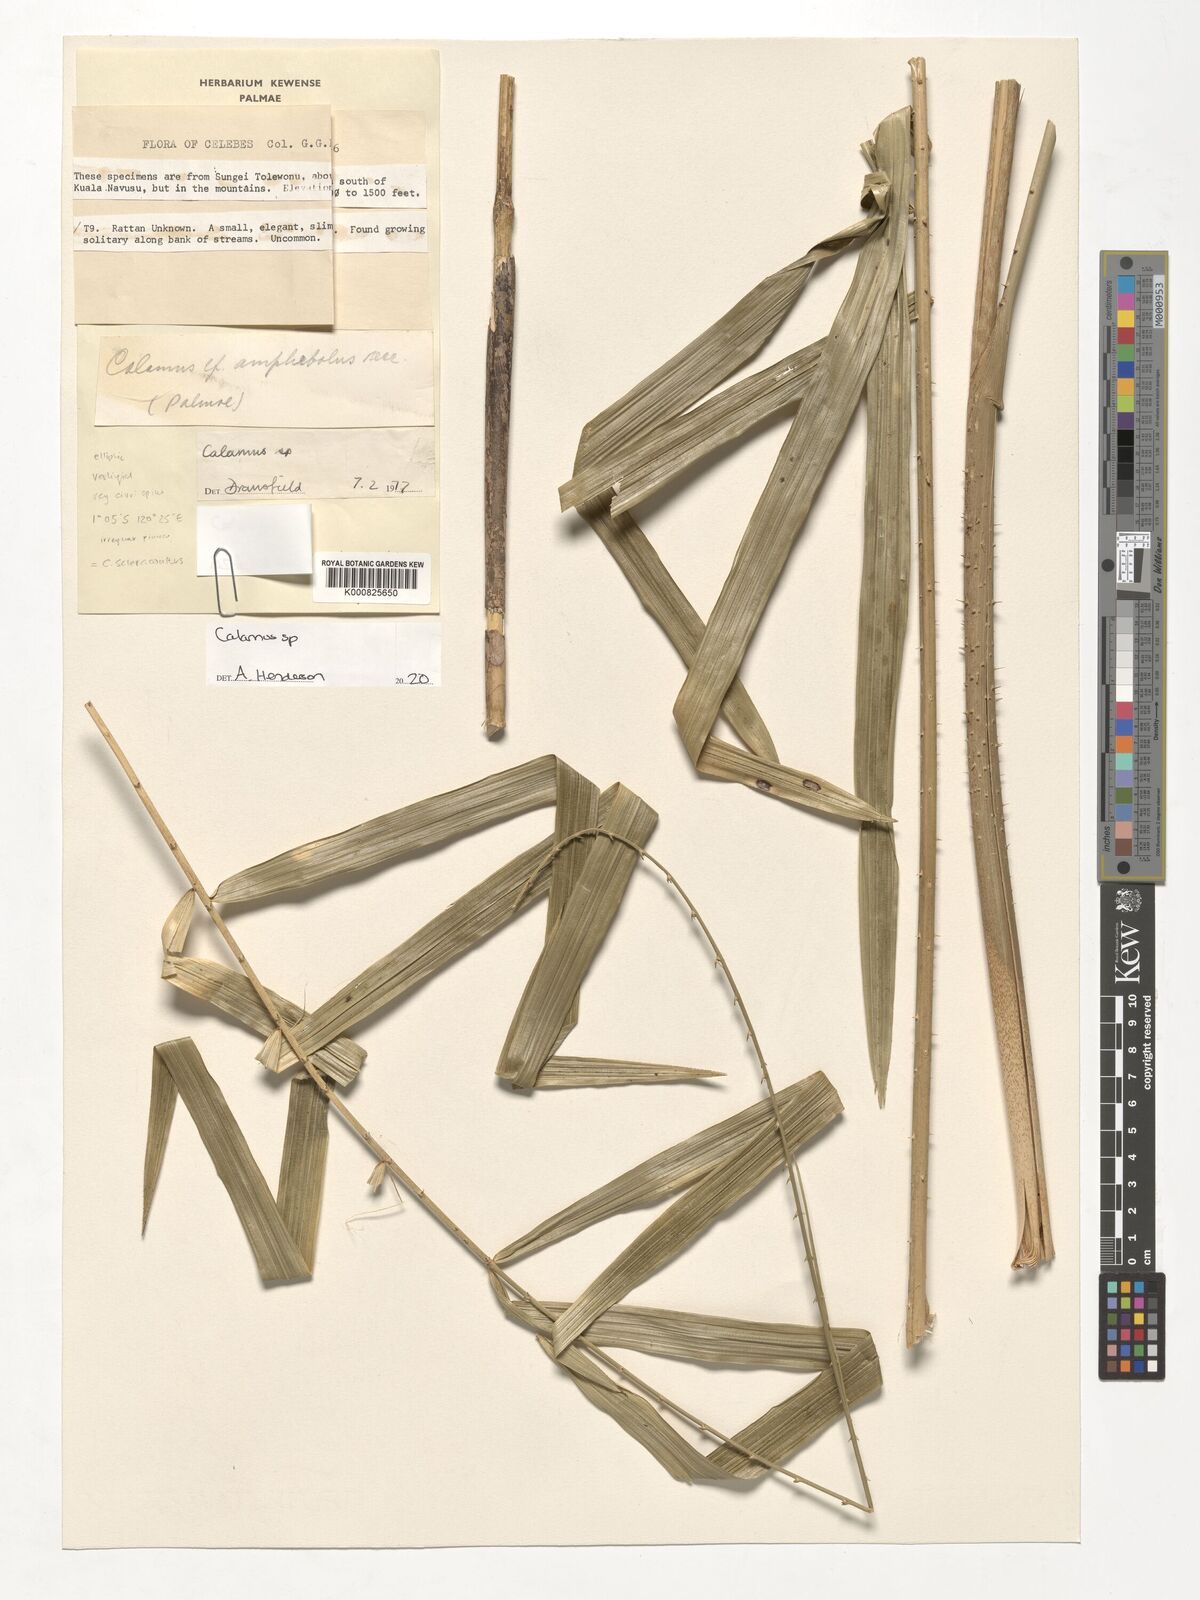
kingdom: Plantae
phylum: Tracheophyta
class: Liliopsida
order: Arecales
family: Arecaceae
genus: Calamus
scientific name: Calamus
